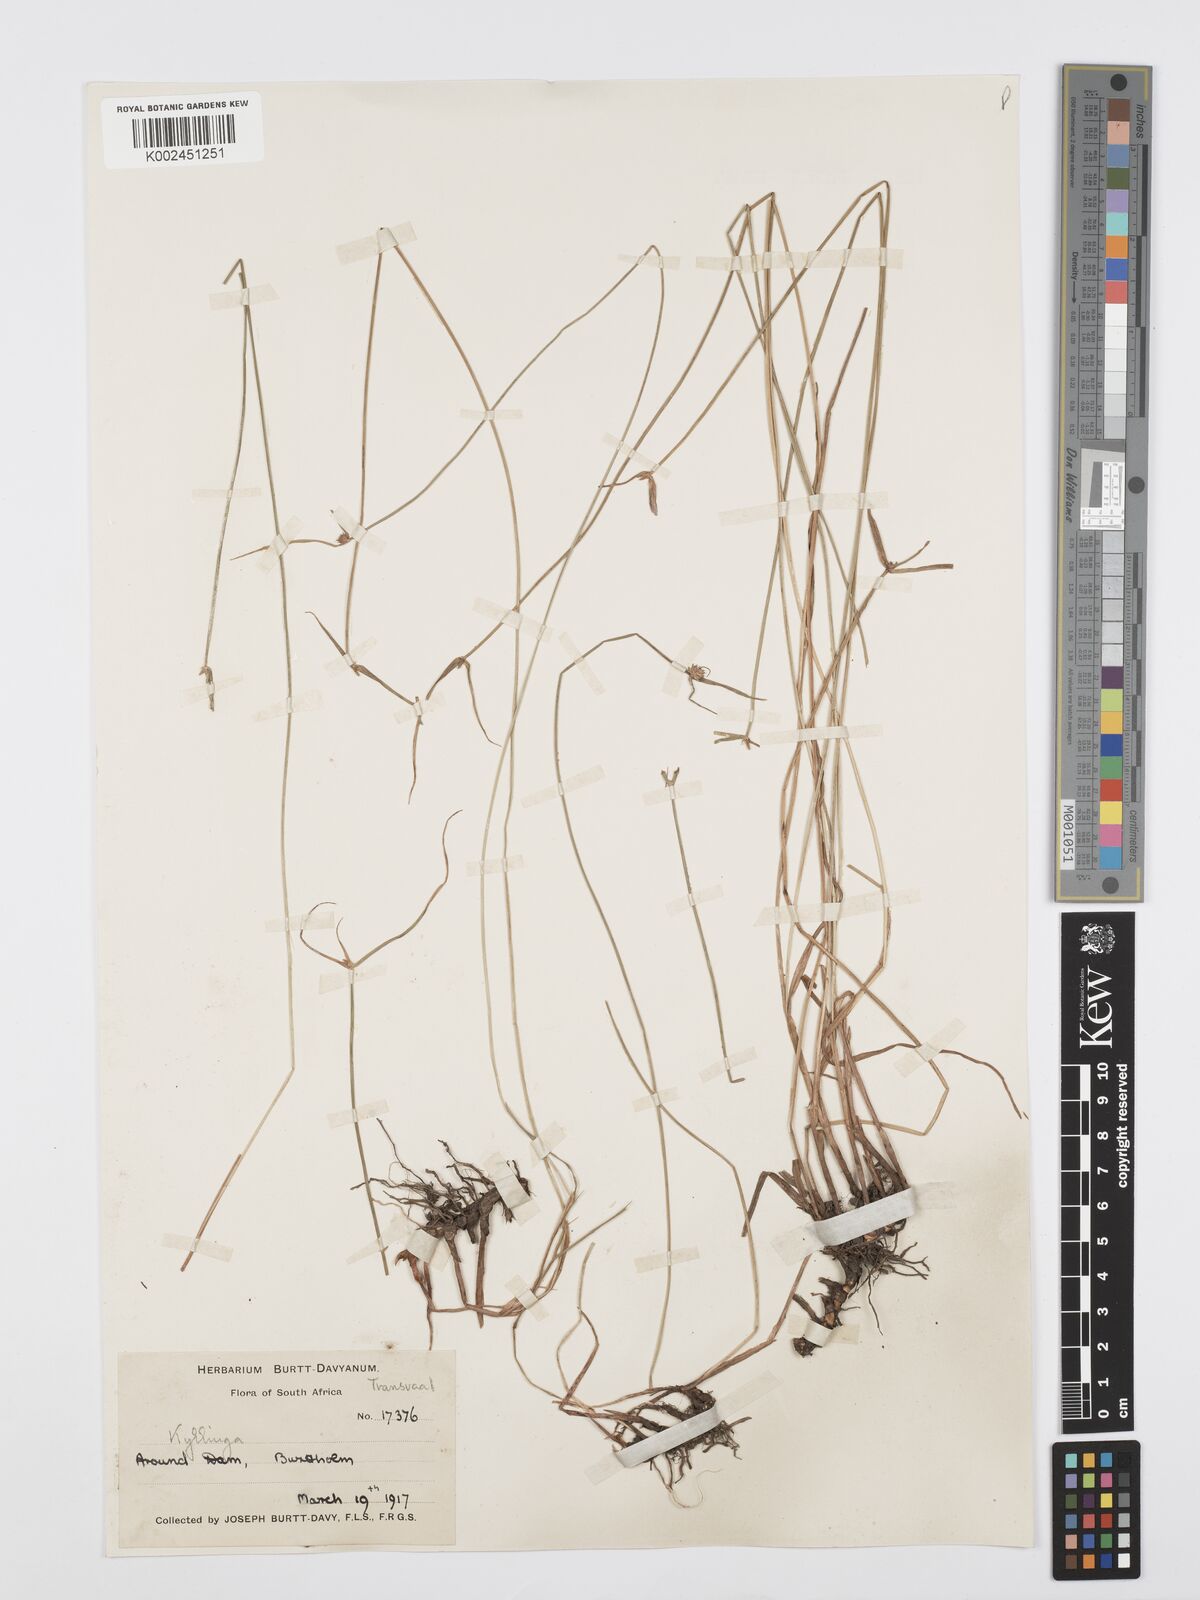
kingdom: Plantae
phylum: Tracheophyta
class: Liliopsida
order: Poales
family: Cyperaceae
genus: Cyperus
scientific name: Cyperus erectus
